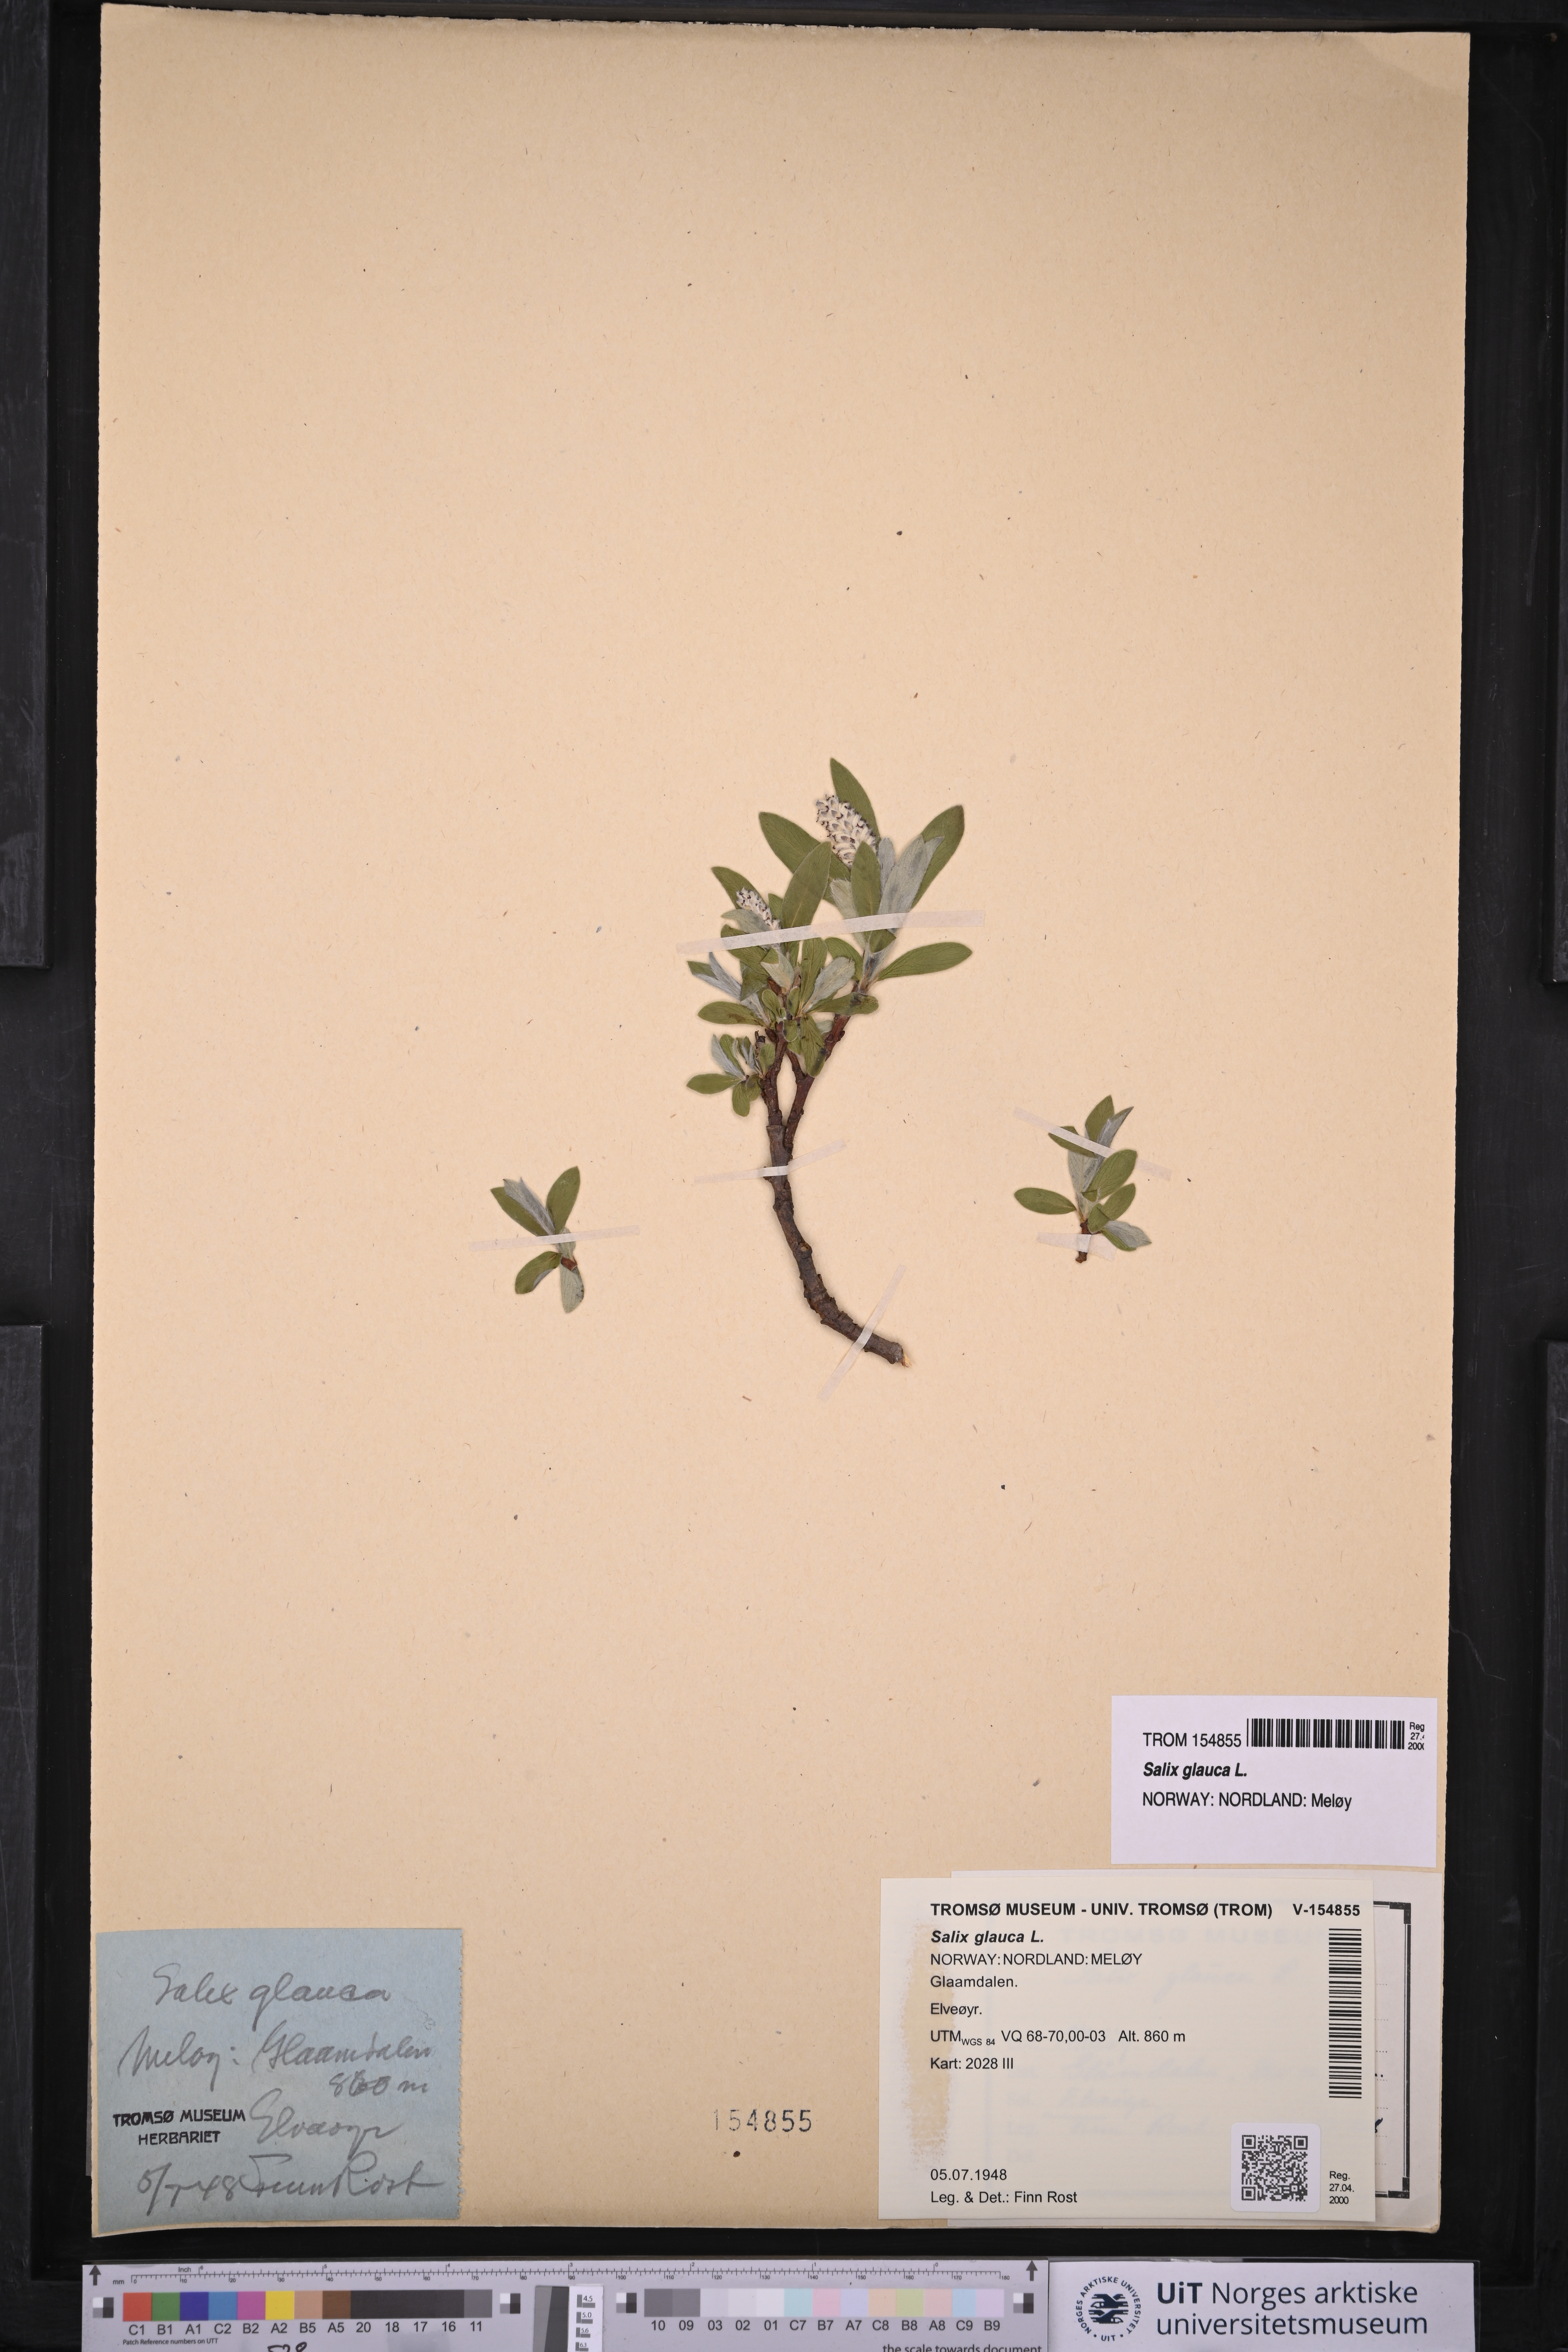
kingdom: Plantae
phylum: Tracheophyta
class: Magnoliopsida
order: Malpighiales
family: Salicaceae
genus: Salix
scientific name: Salix glauca
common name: Glaucous willow
